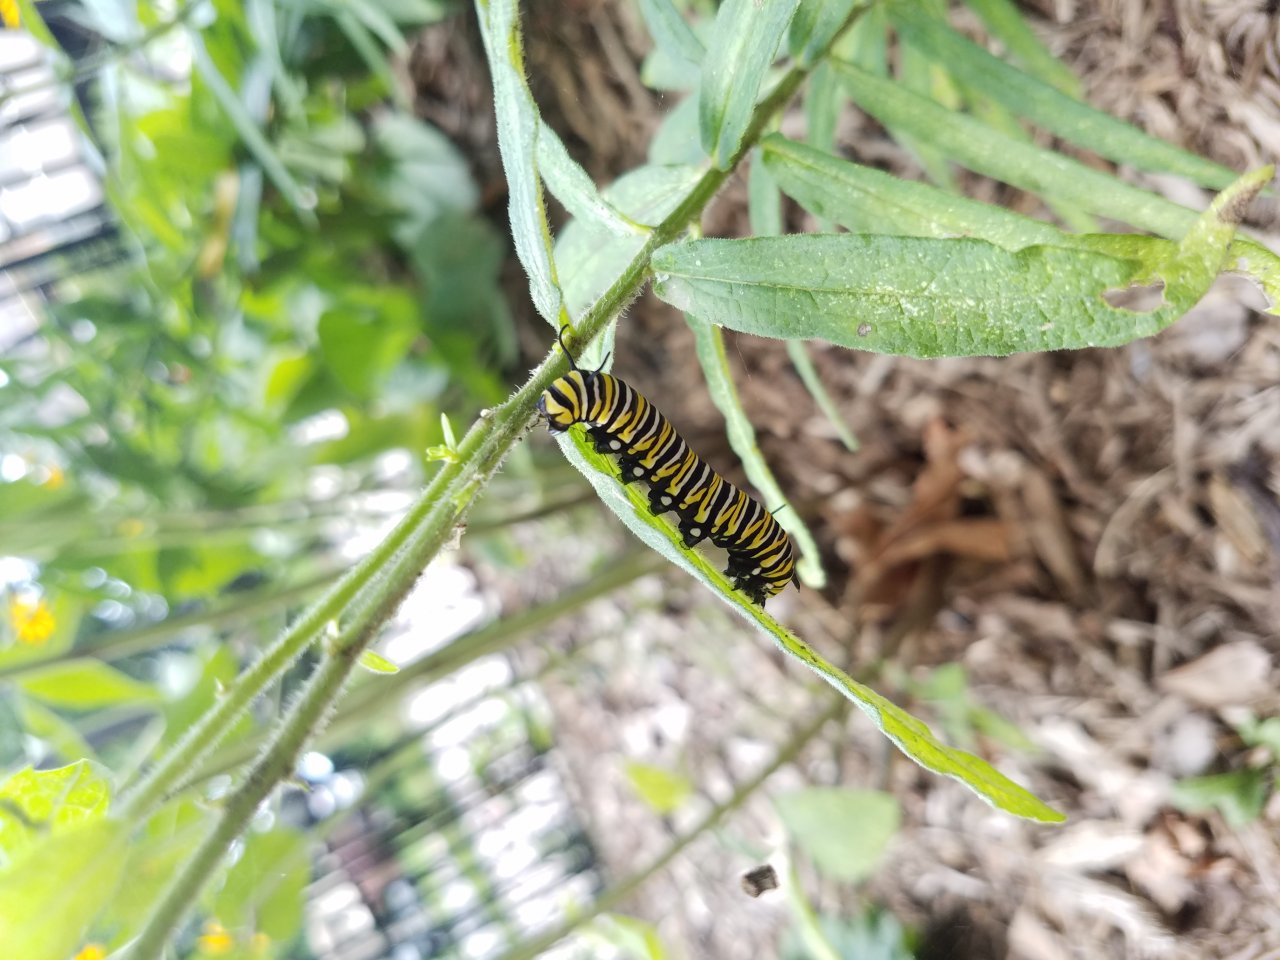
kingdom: Animalia
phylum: Arthropoda
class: Insecta
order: Lepidoptera
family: Nymphalidae
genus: Danaus
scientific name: Danaus plexippus
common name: Monarch
